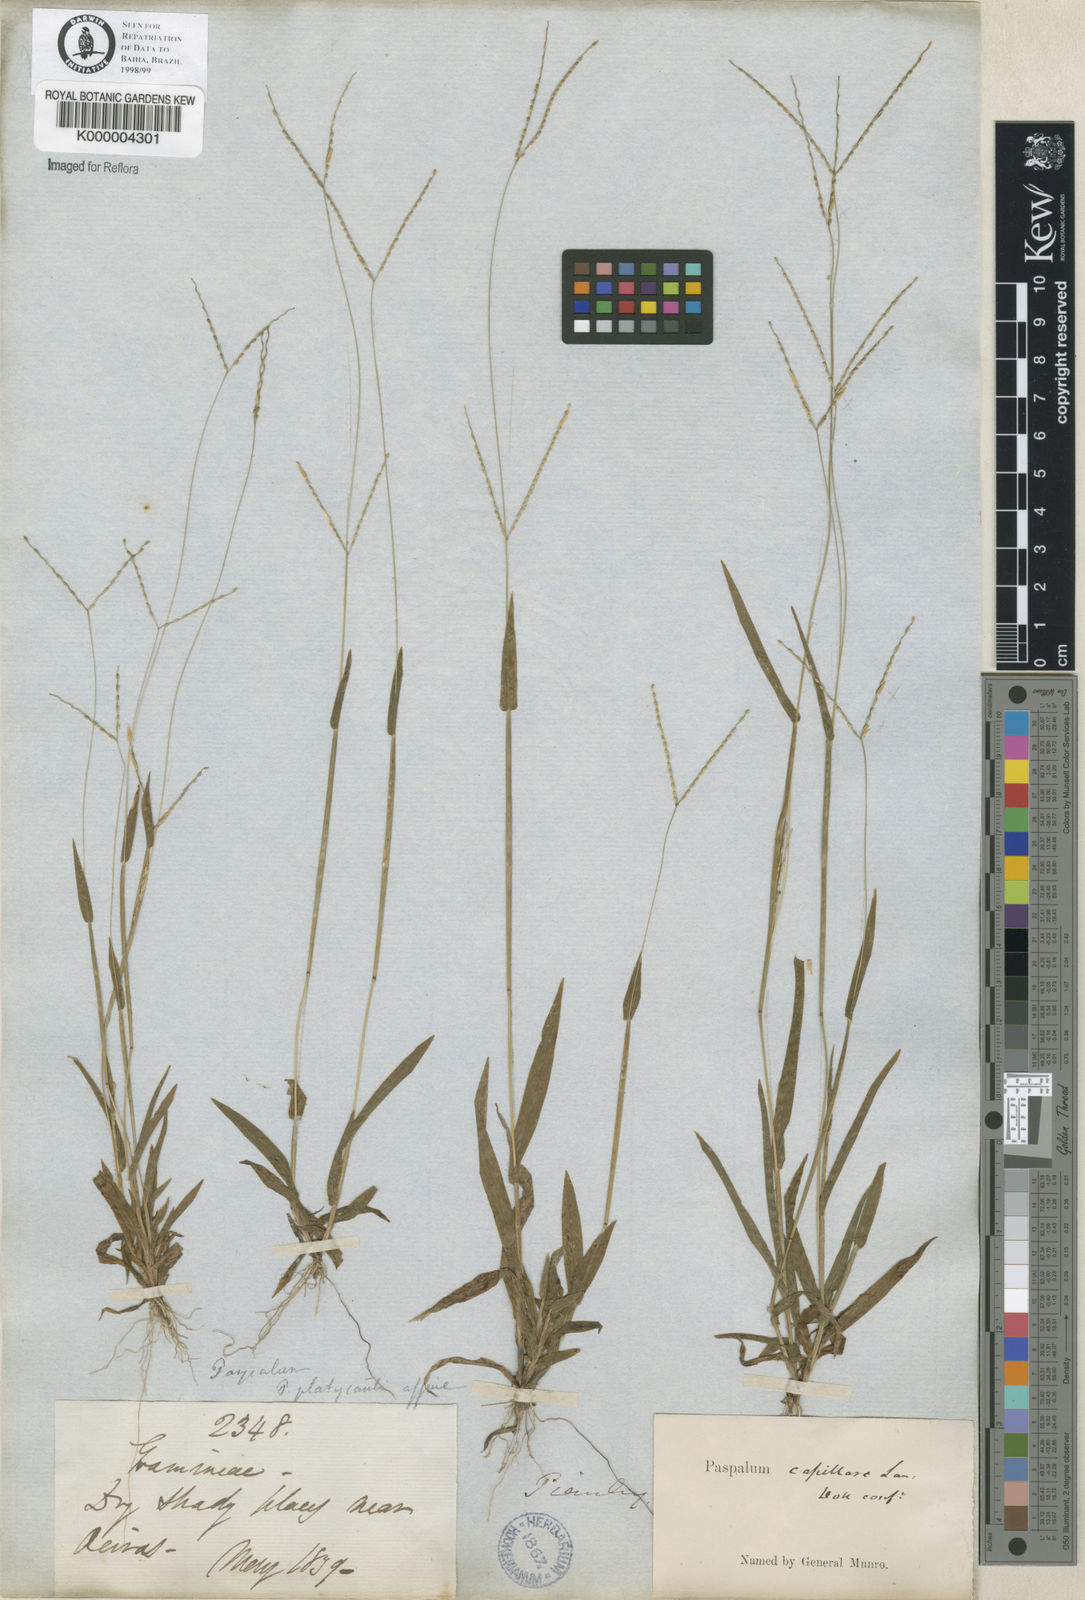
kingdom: Plantae
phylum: Tracheophyta
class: Liliopsida
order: Poales
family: Poaceae
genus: Axonopus
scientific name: Axonopus capillaris
